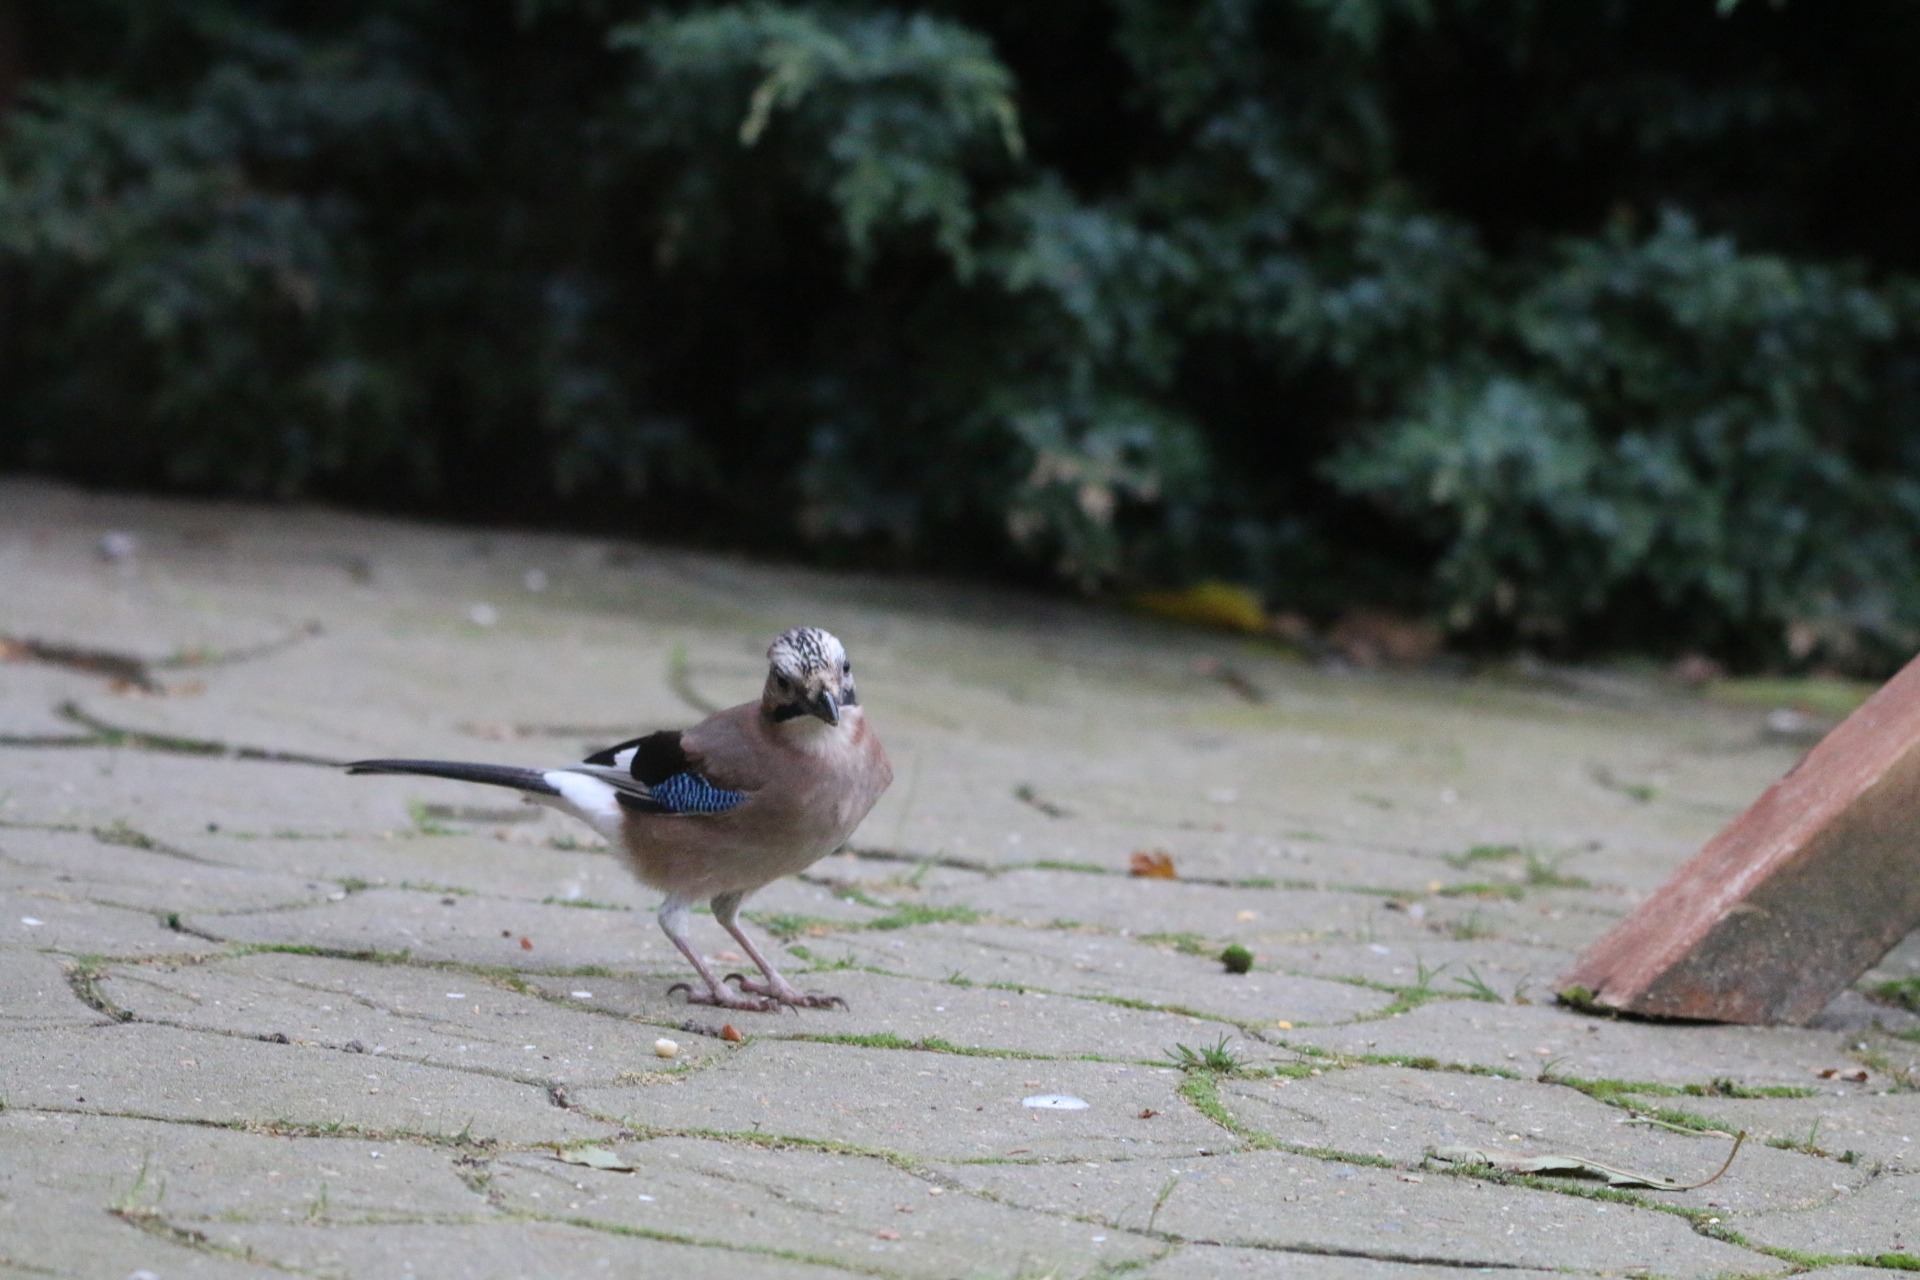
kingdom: Animalia
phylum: Chordata
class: Aves
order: Passeriformes
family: Corvidae
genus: Garrulus
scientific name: Garrulus glandarius
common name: Skovskade
